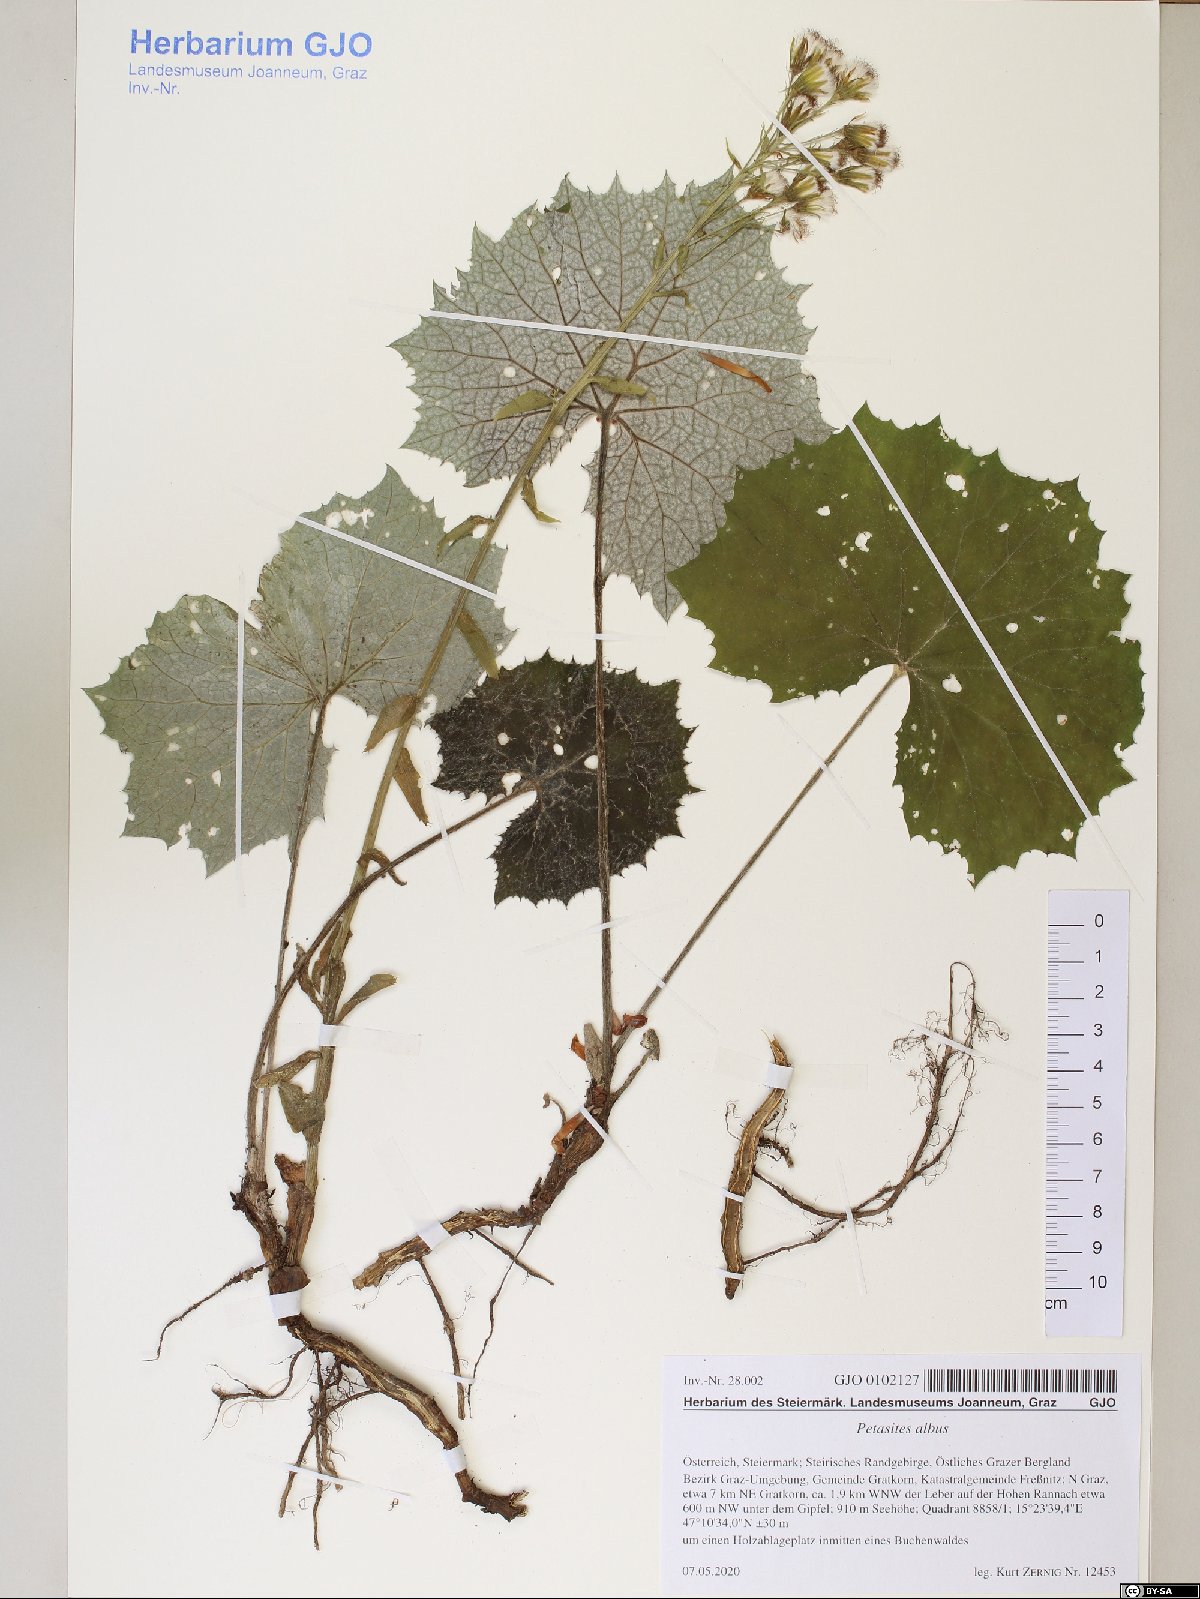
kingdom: Plantae
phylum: Tracheophyta
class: Magnoliopsida
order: Asterales
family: Asteraceae
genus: Petasites
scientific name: Petasites albus
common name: White butterbur
